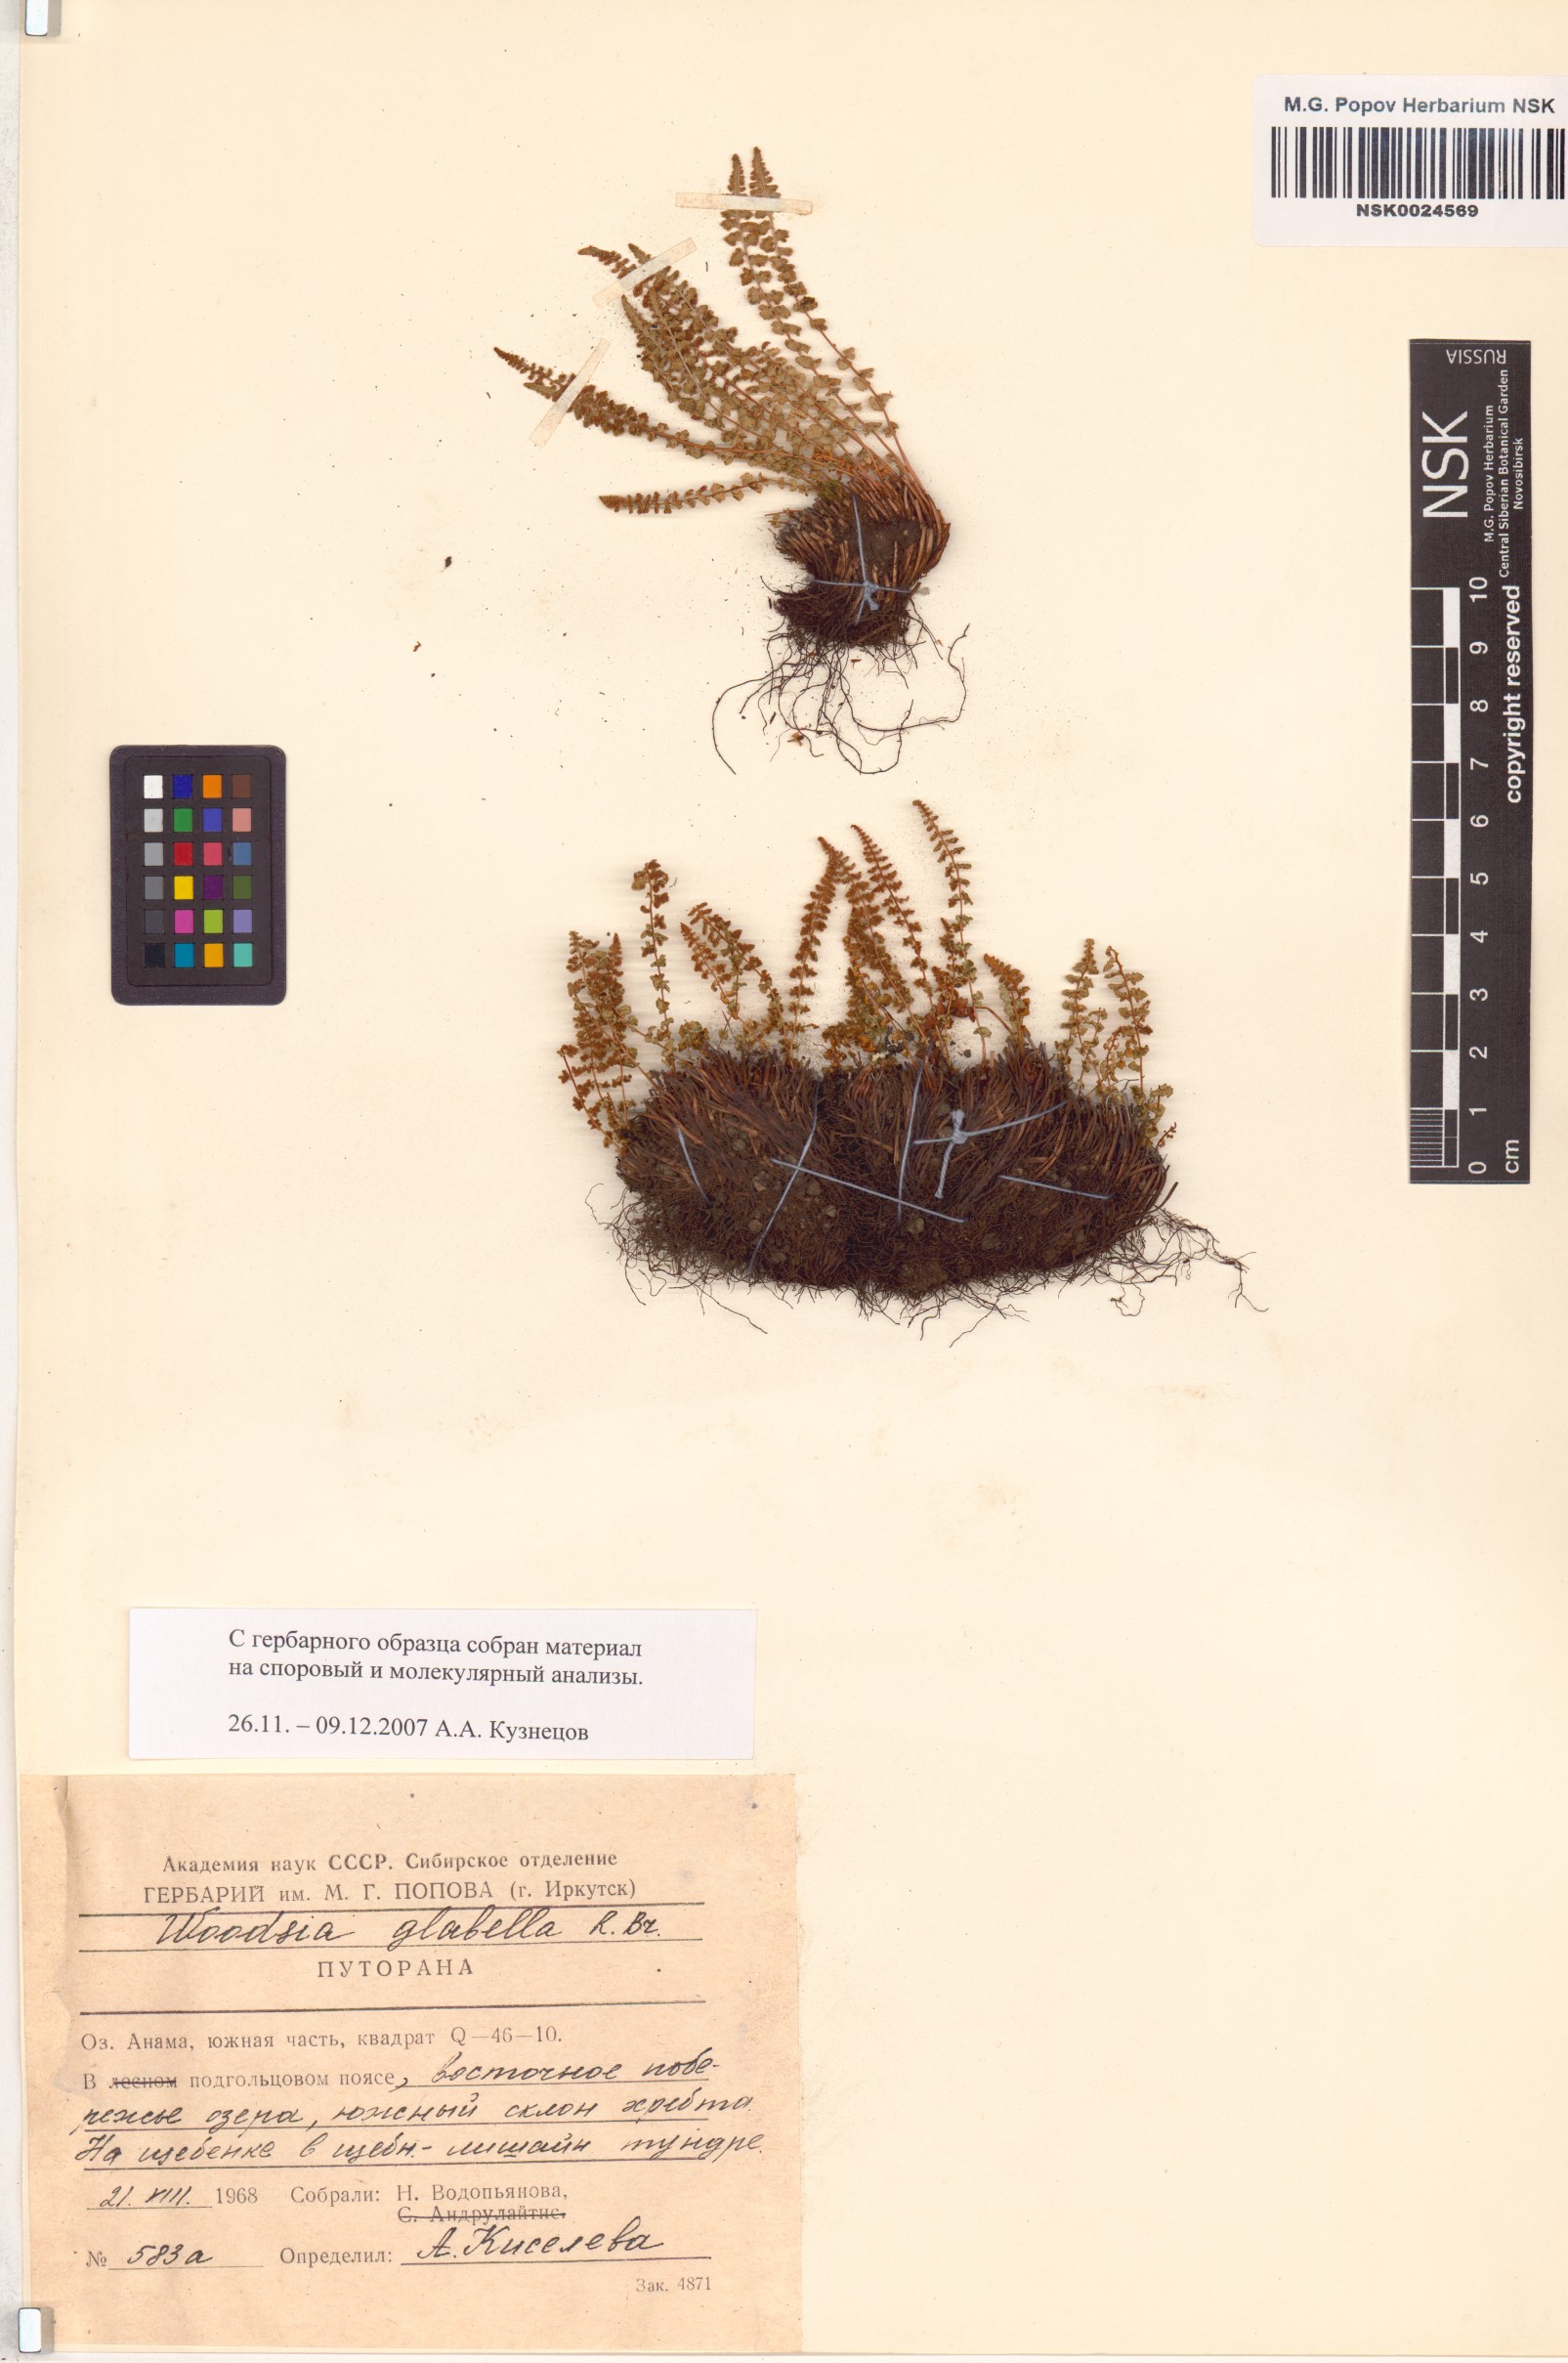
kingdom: Plantae
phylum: Tracheophyta
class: Polypodiopsida
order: Polypodiales
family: Woodsiaceae
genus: Woodsia
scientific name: Woodsia glabella
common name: Smooth woodsia
